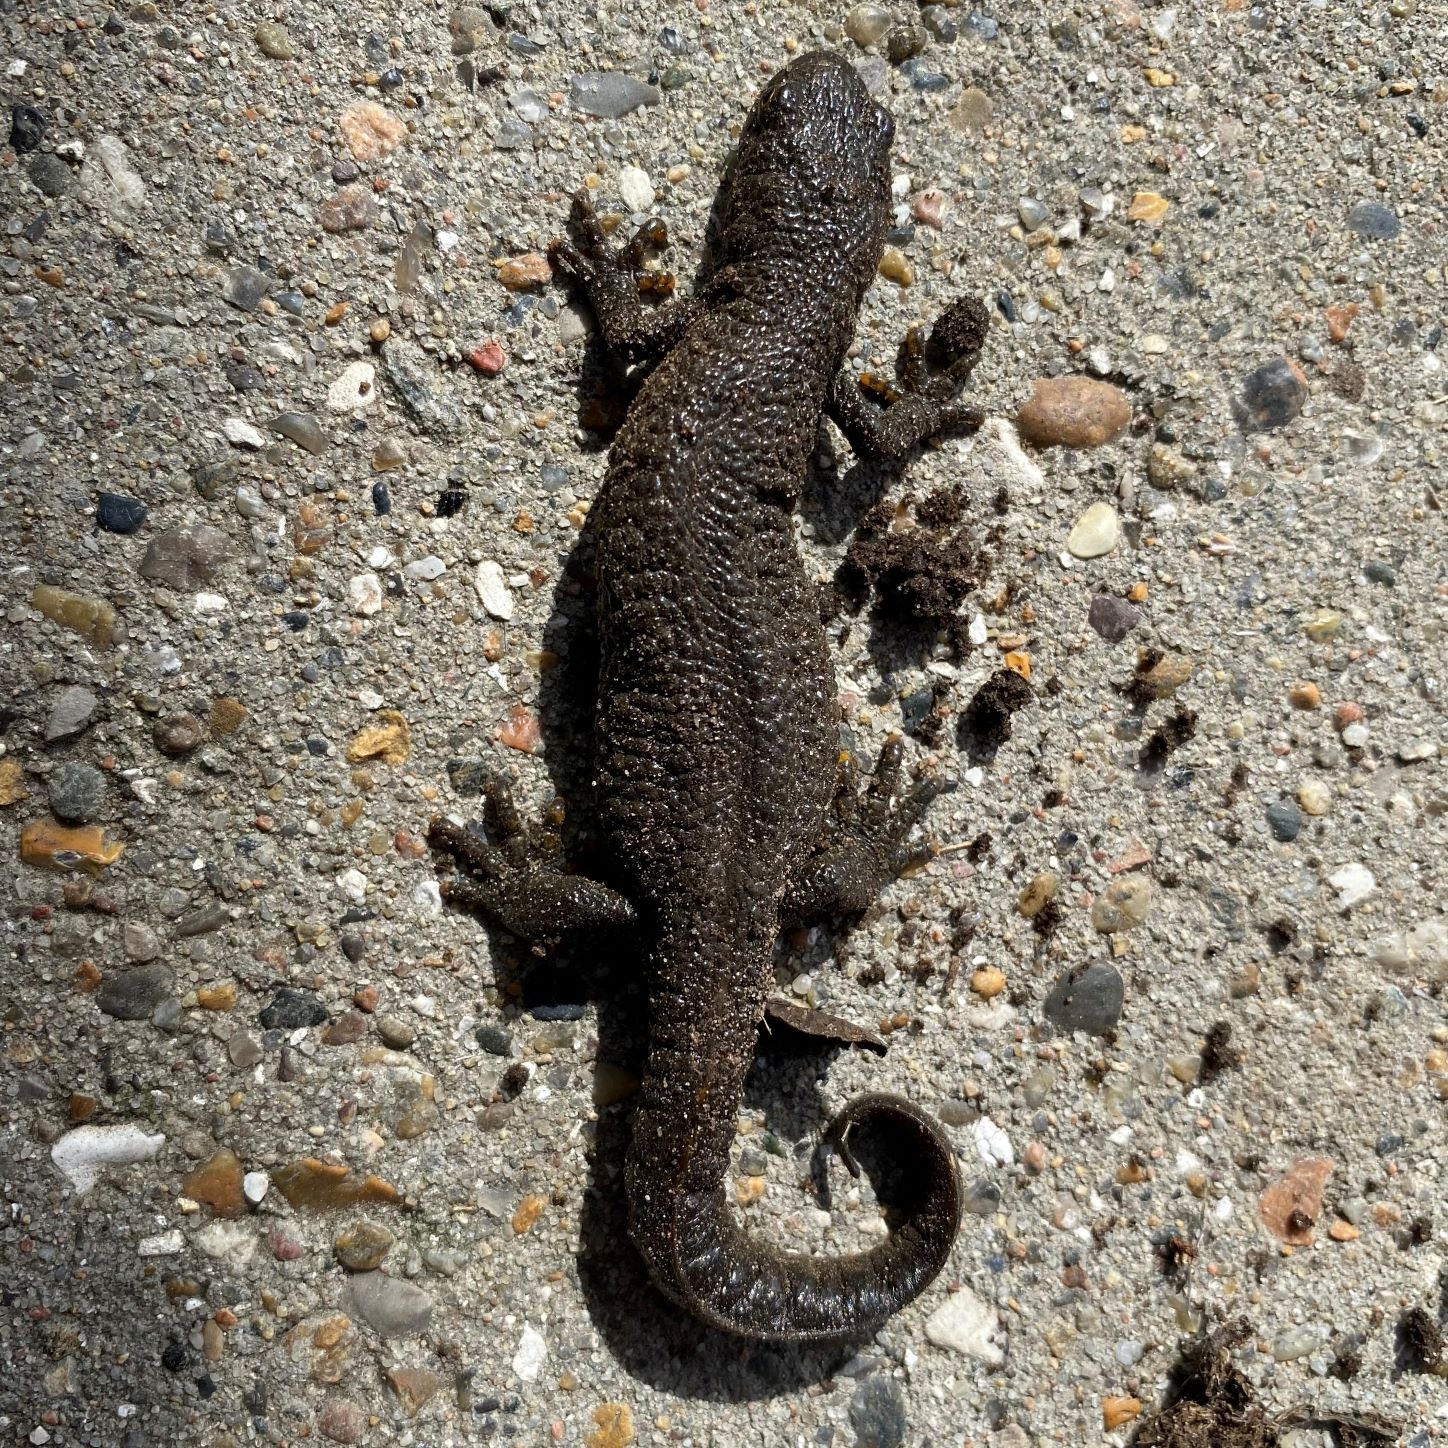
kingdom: Animalia
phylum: Chordata
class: Amphibia
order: Caudata
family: Salamandridae
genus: Triturus
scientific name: Triturus cristatus
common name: Stor vandsalamander
